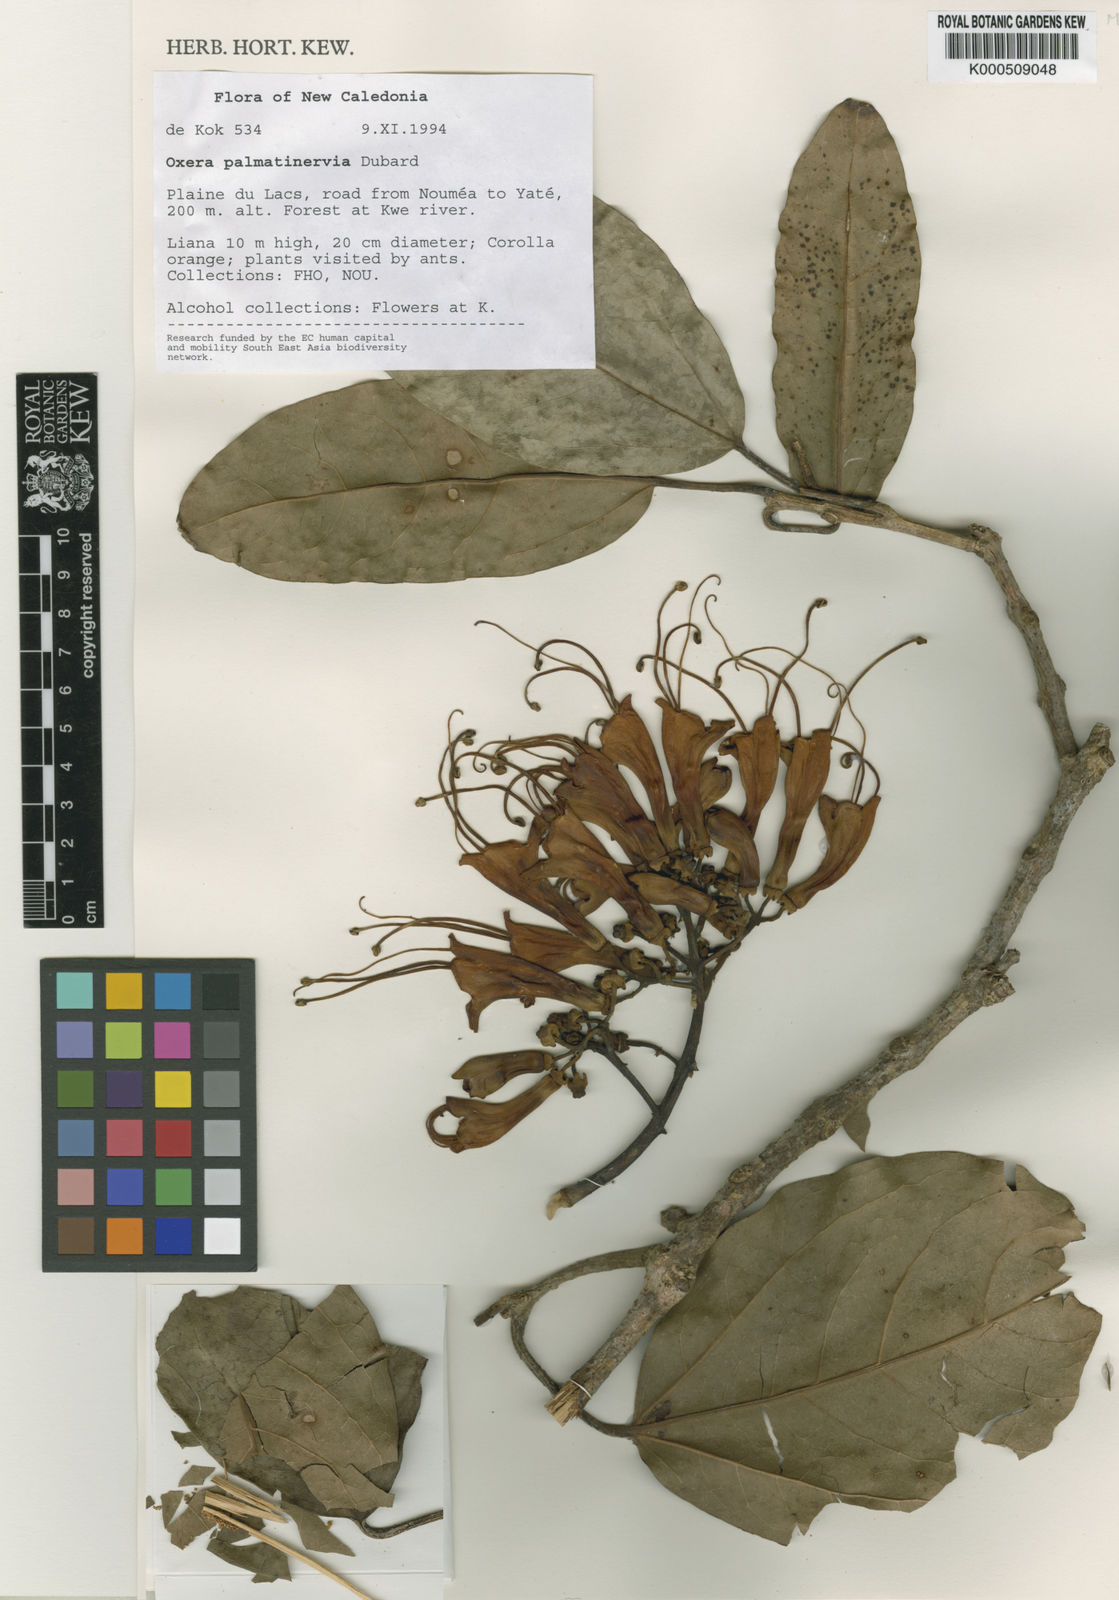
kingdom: Plantae
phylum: Tracheophyta
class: Magnoliopsida
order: Lamiales
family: Lamiaceae
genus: Oxera
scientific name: Oxera palmatinervia
